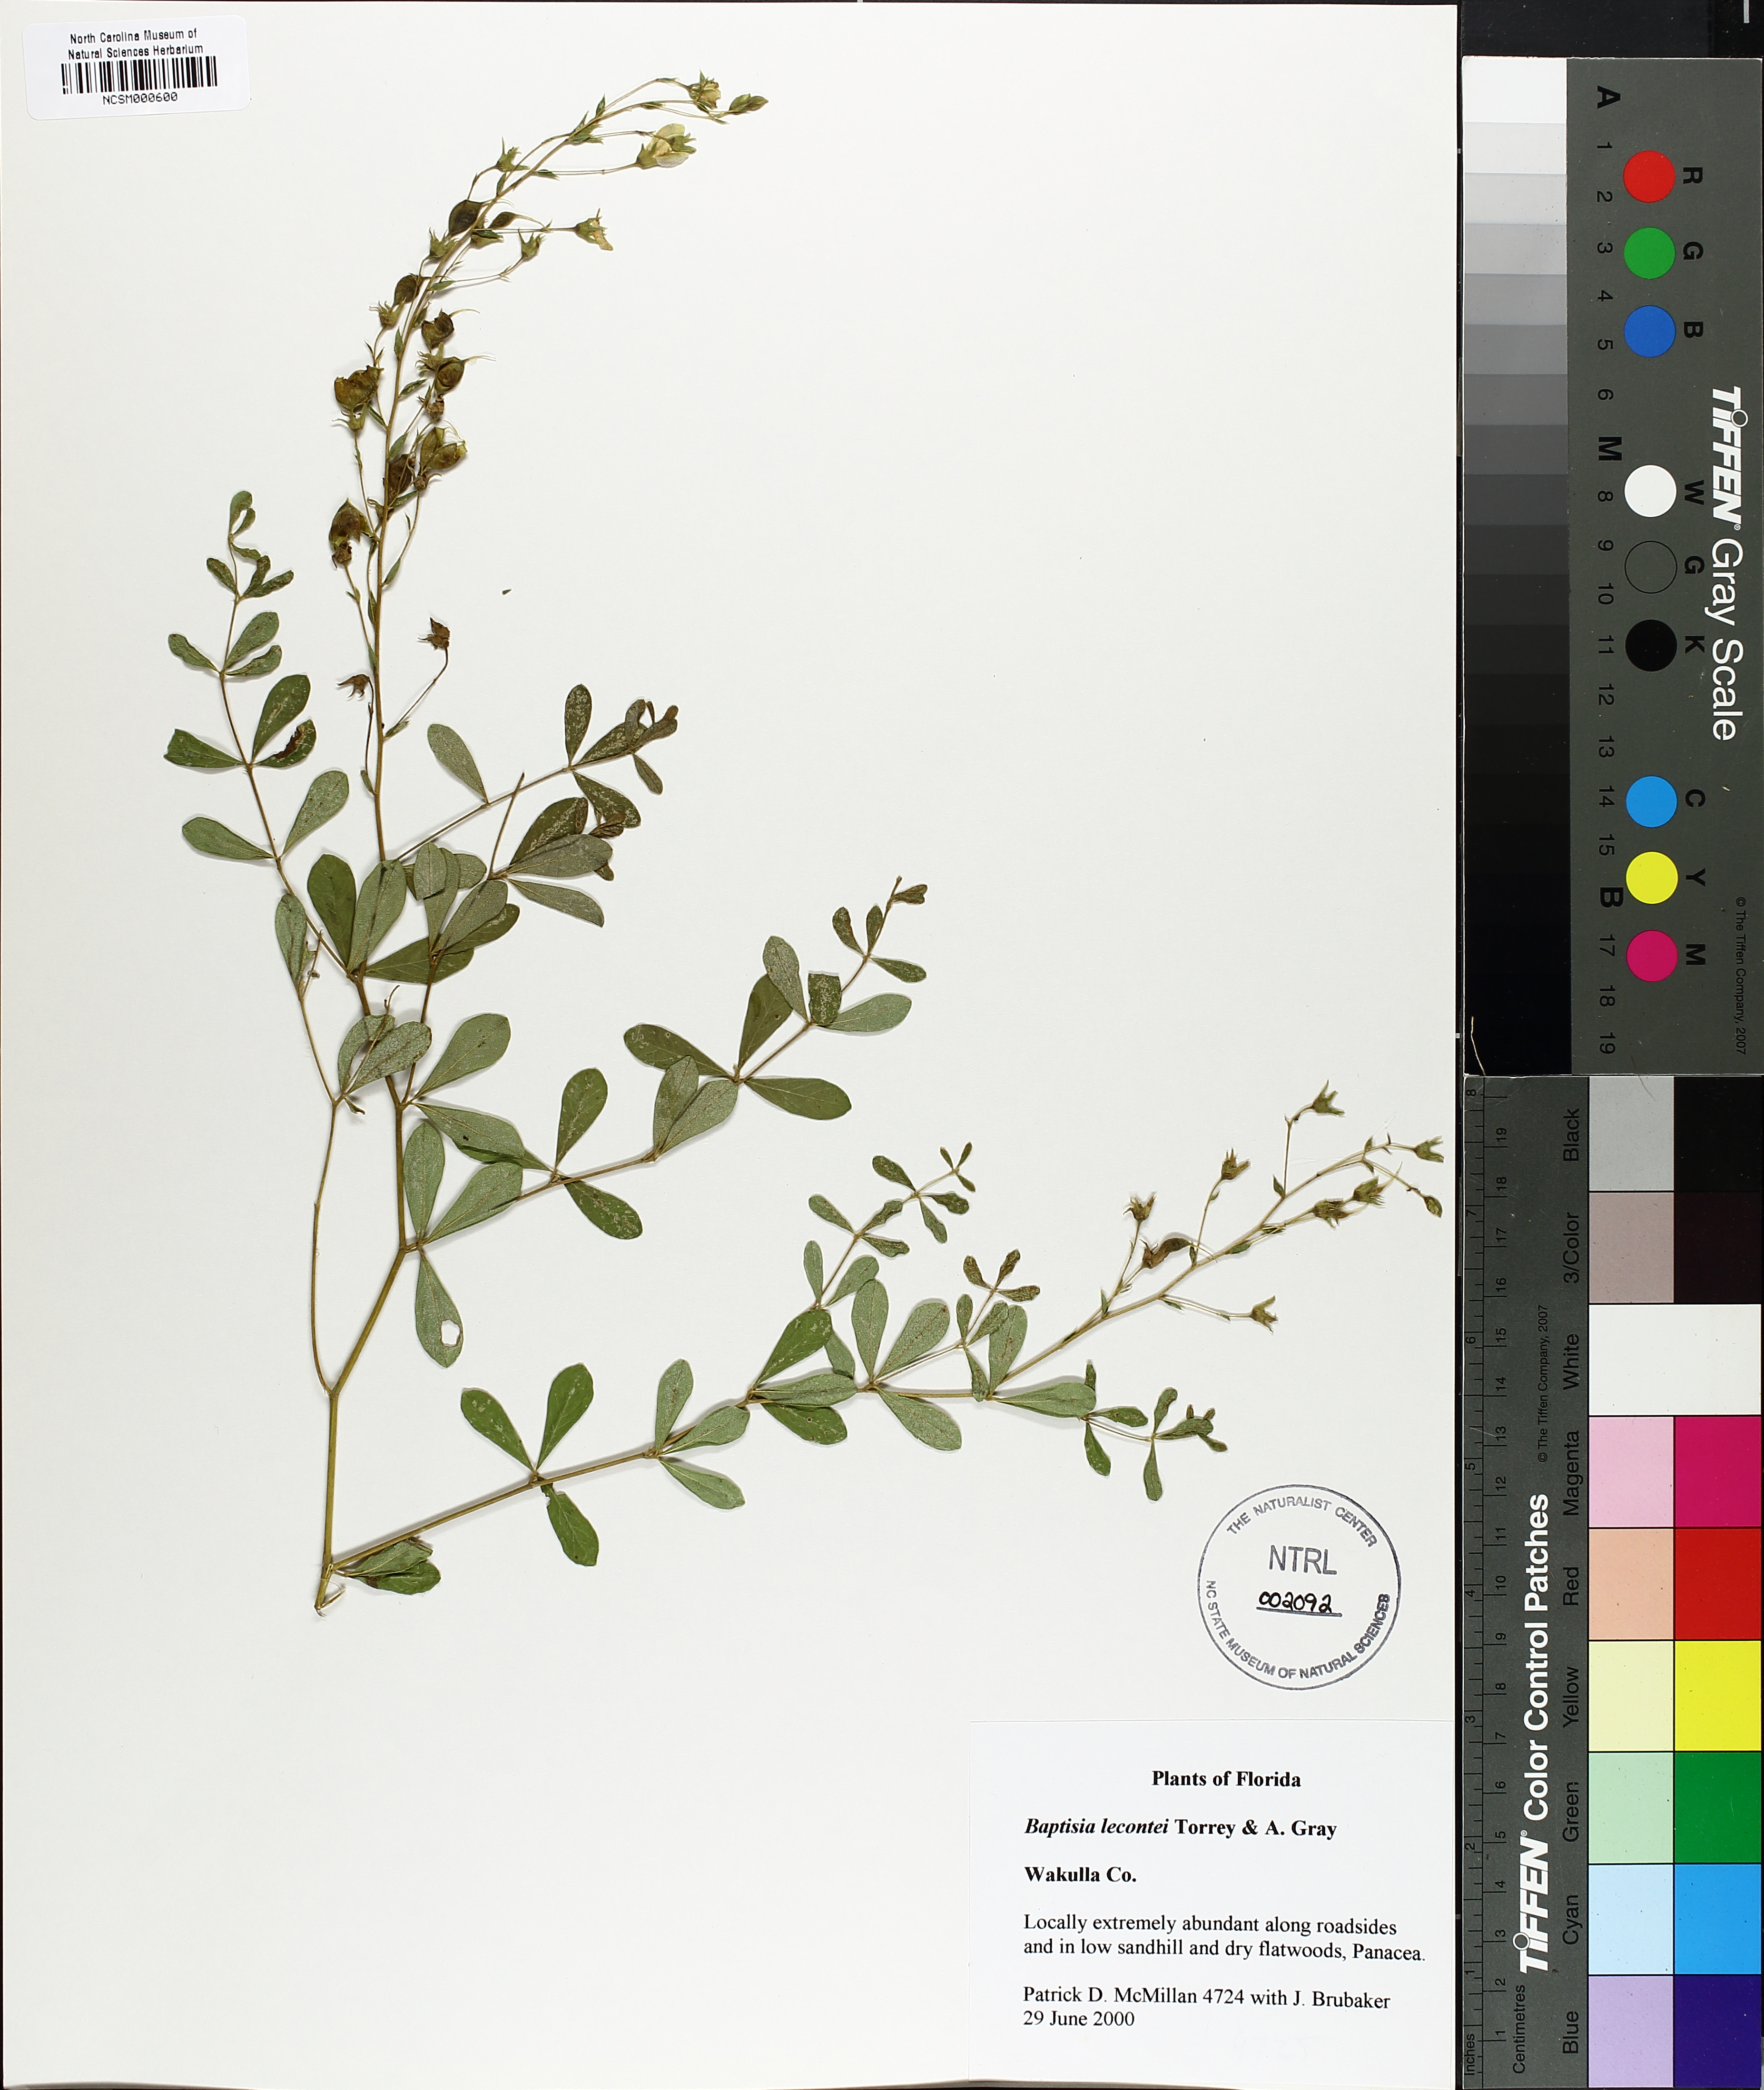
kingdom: Plantae
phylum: Tracheophyta
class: Magnoliopsida
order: Fabales
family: Fabaceae
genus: Baptisia
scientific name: Baptisia lecontei
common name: Pineland wild indigo
